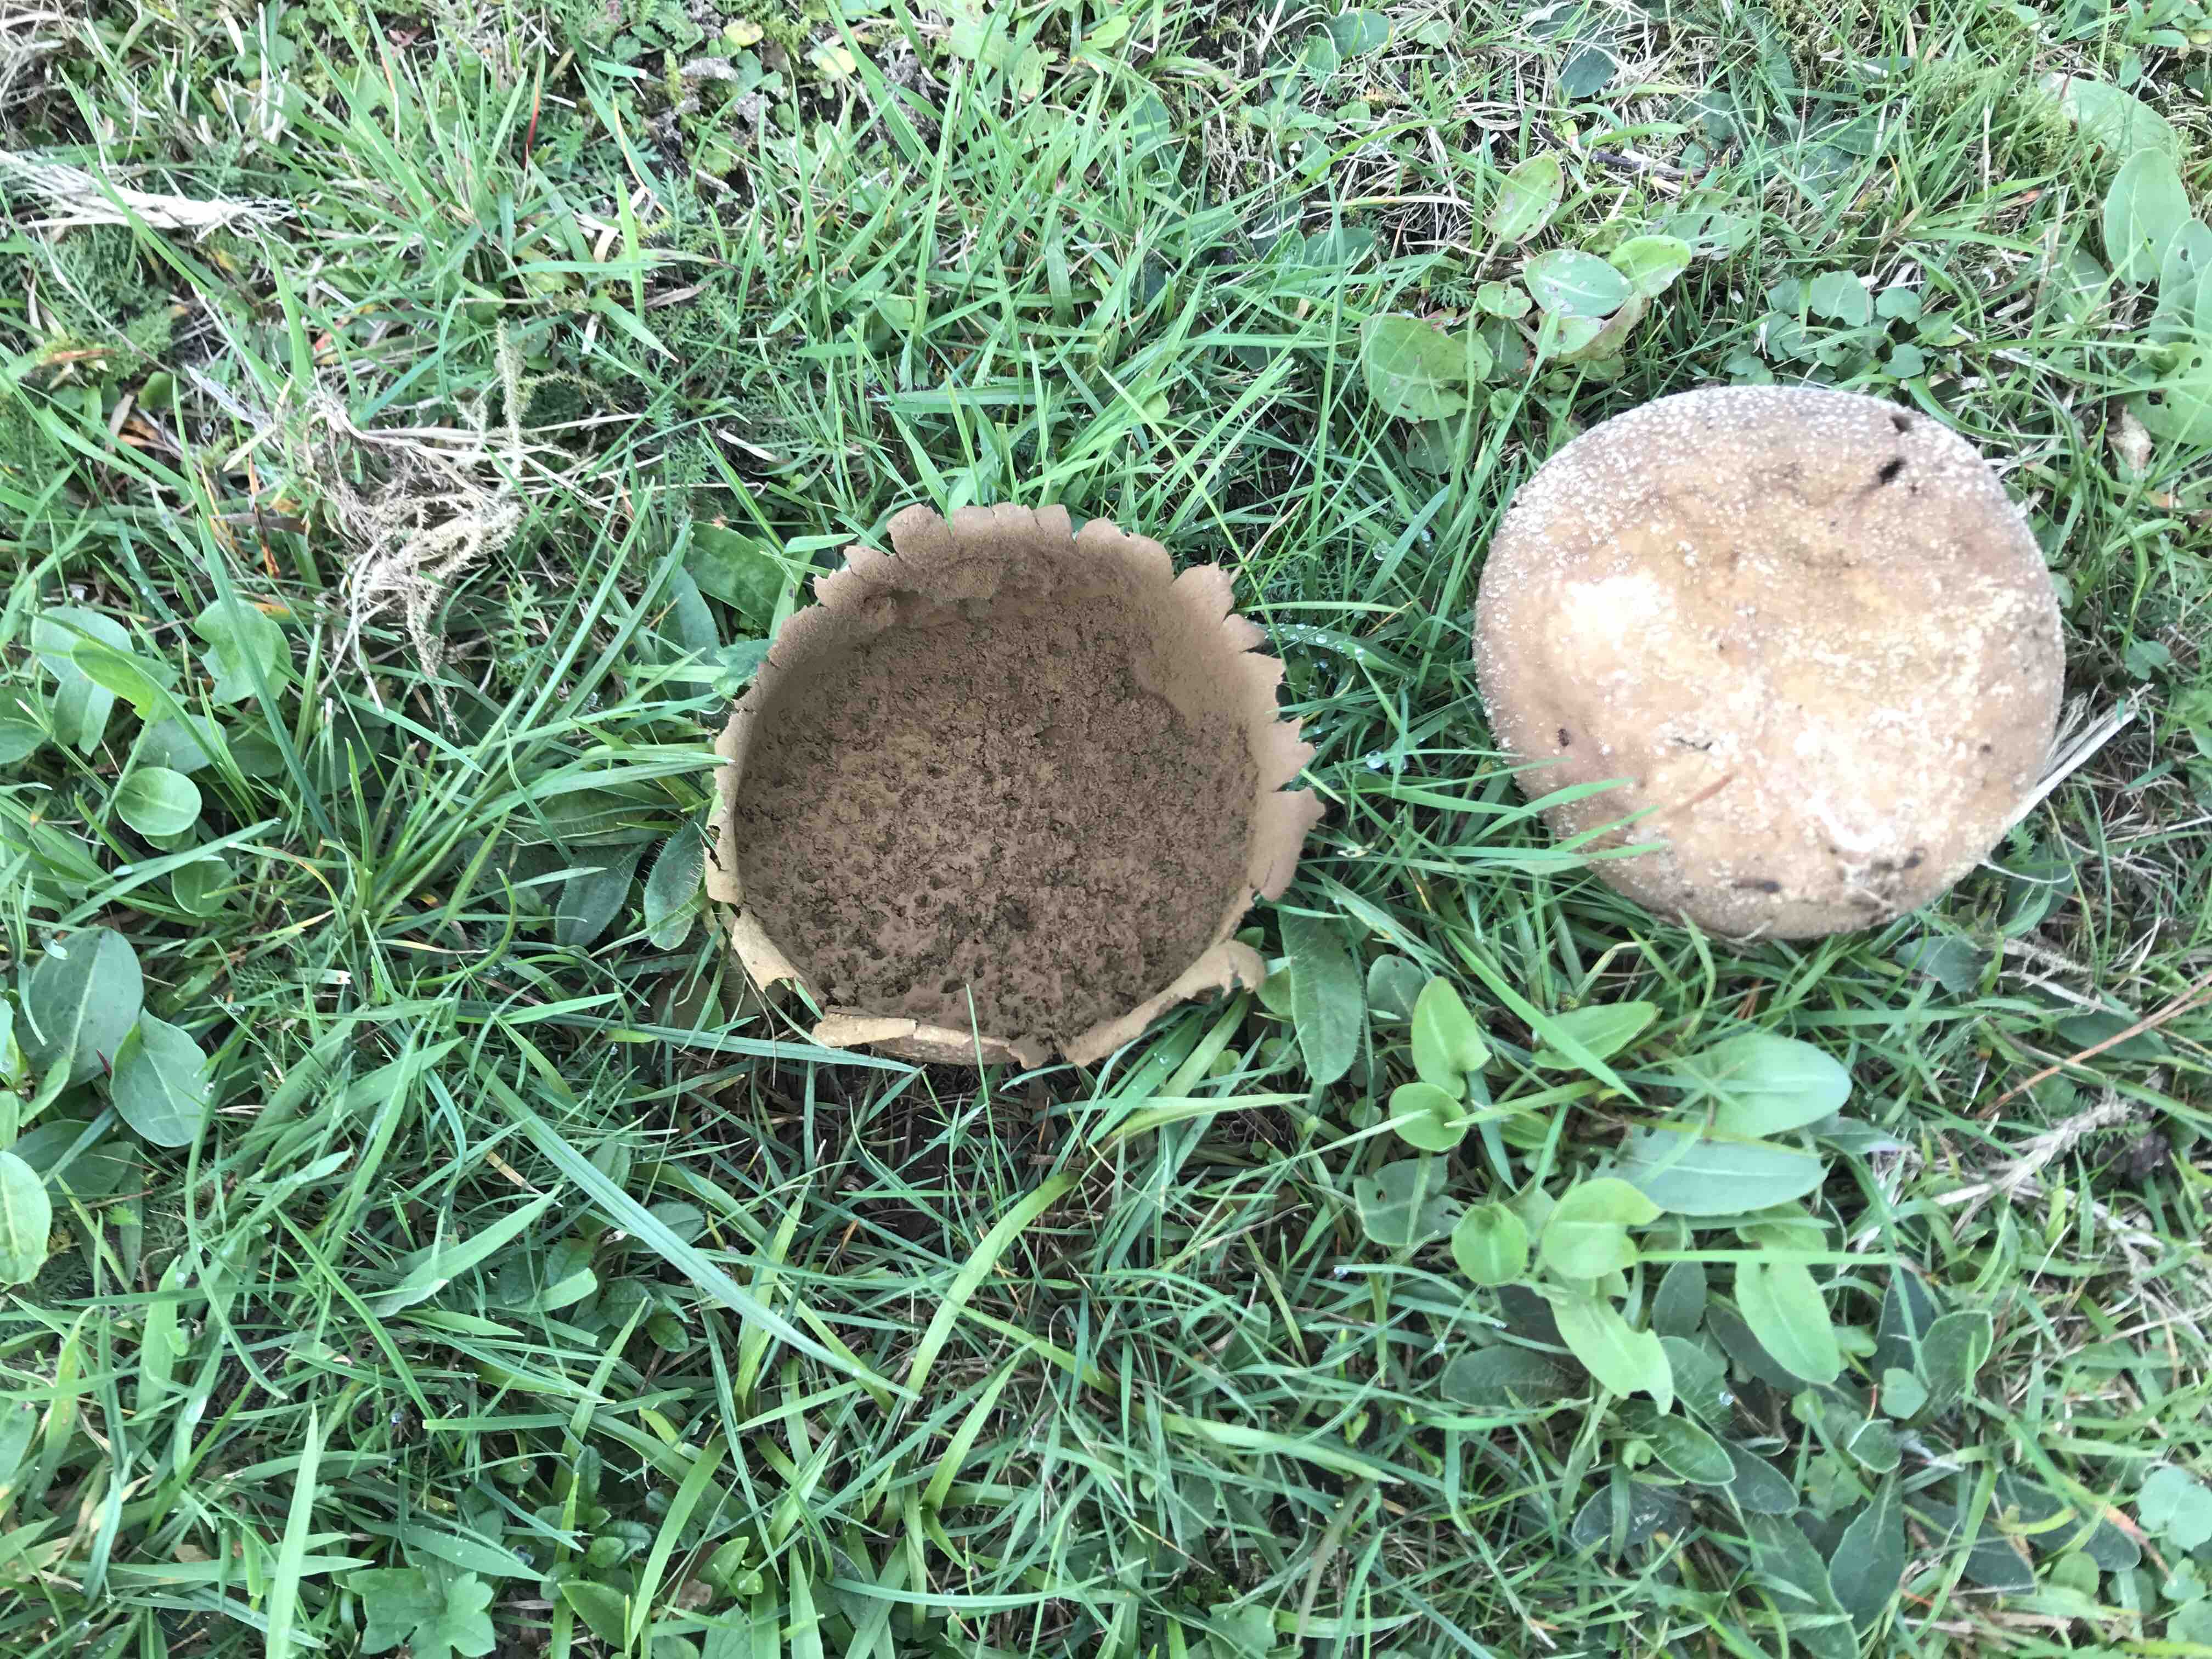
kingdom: Fungi
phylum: Basidiomycota
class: Agaricomycetes
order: Agaricales
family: Lycoperdaceae
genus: Bovistella
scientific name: Bovistella utriformis
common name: skællet støvbold
